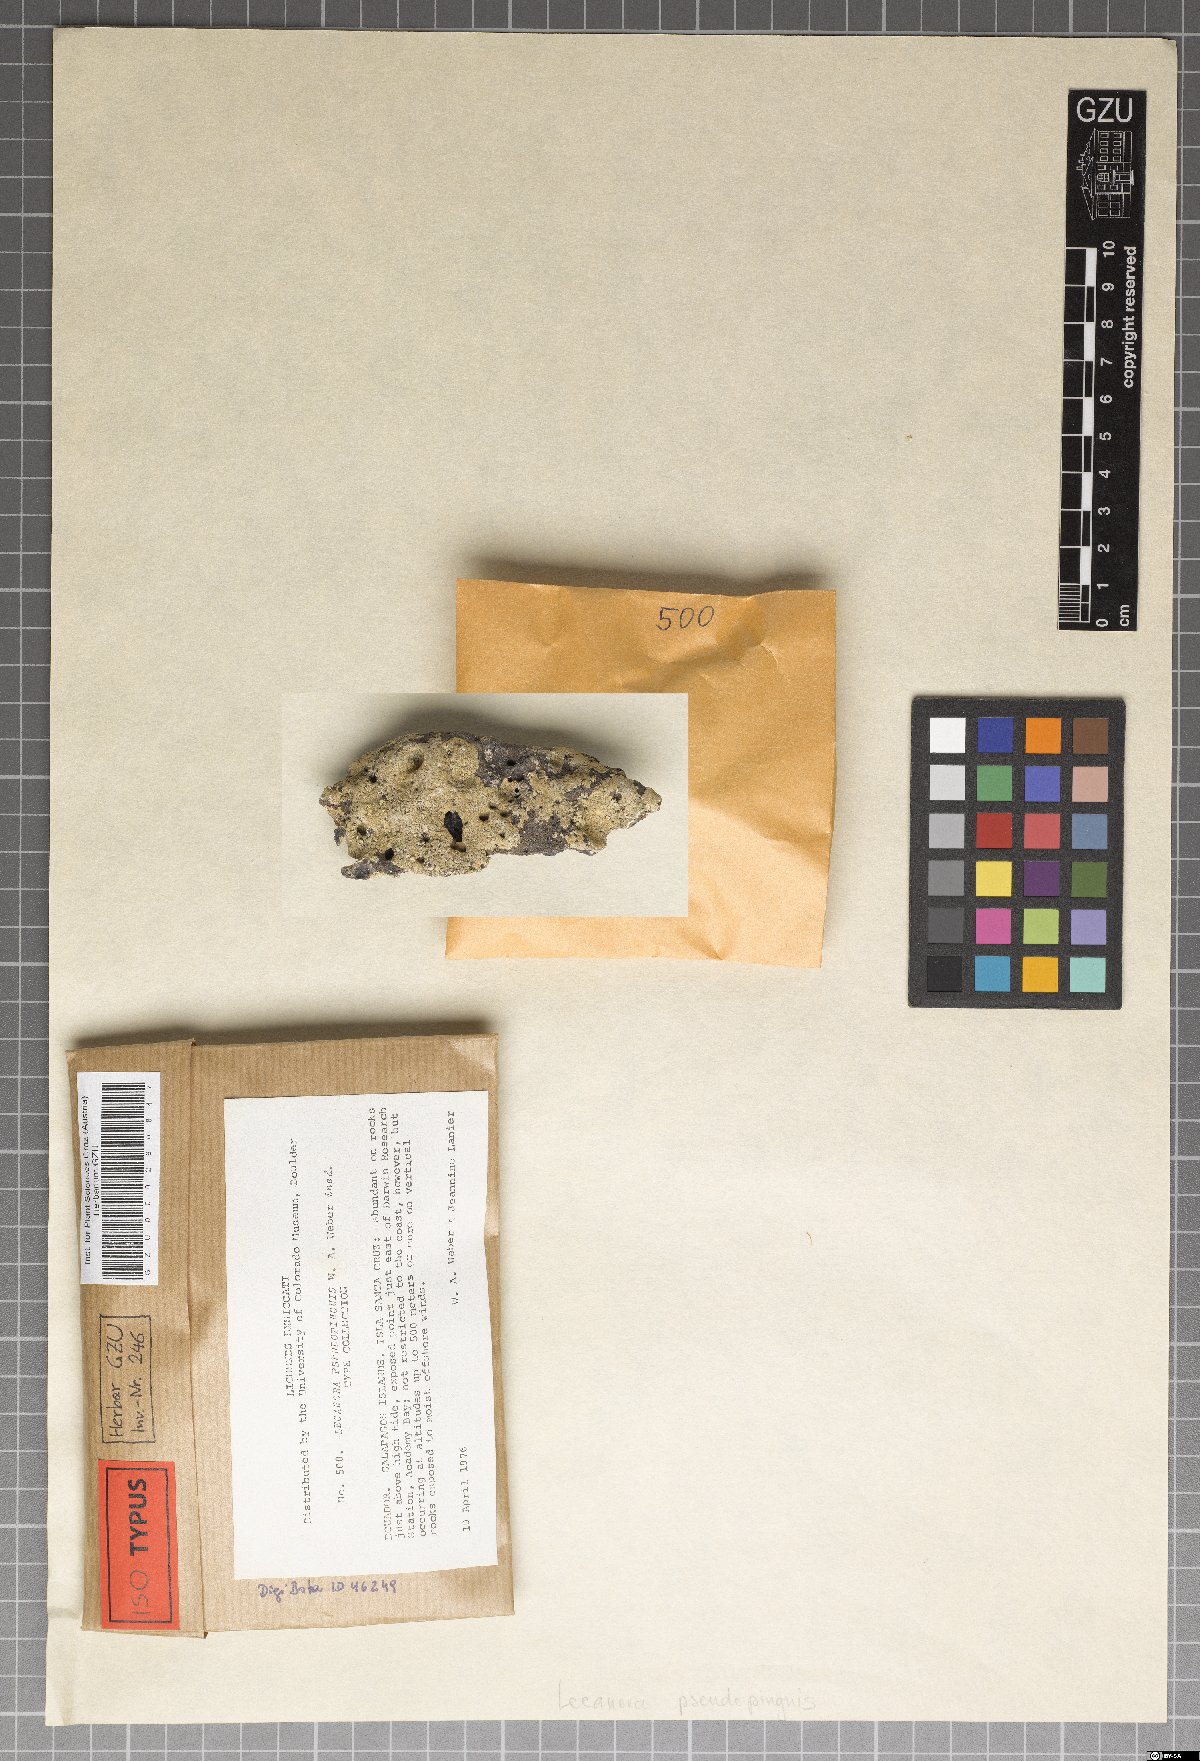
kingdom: Fungi
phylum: Ascomycota
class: Lecanoromycetes
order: Lecanorales
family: Lecanoraceae
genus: Lecanora
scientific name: Lecanora pseudopinguis
